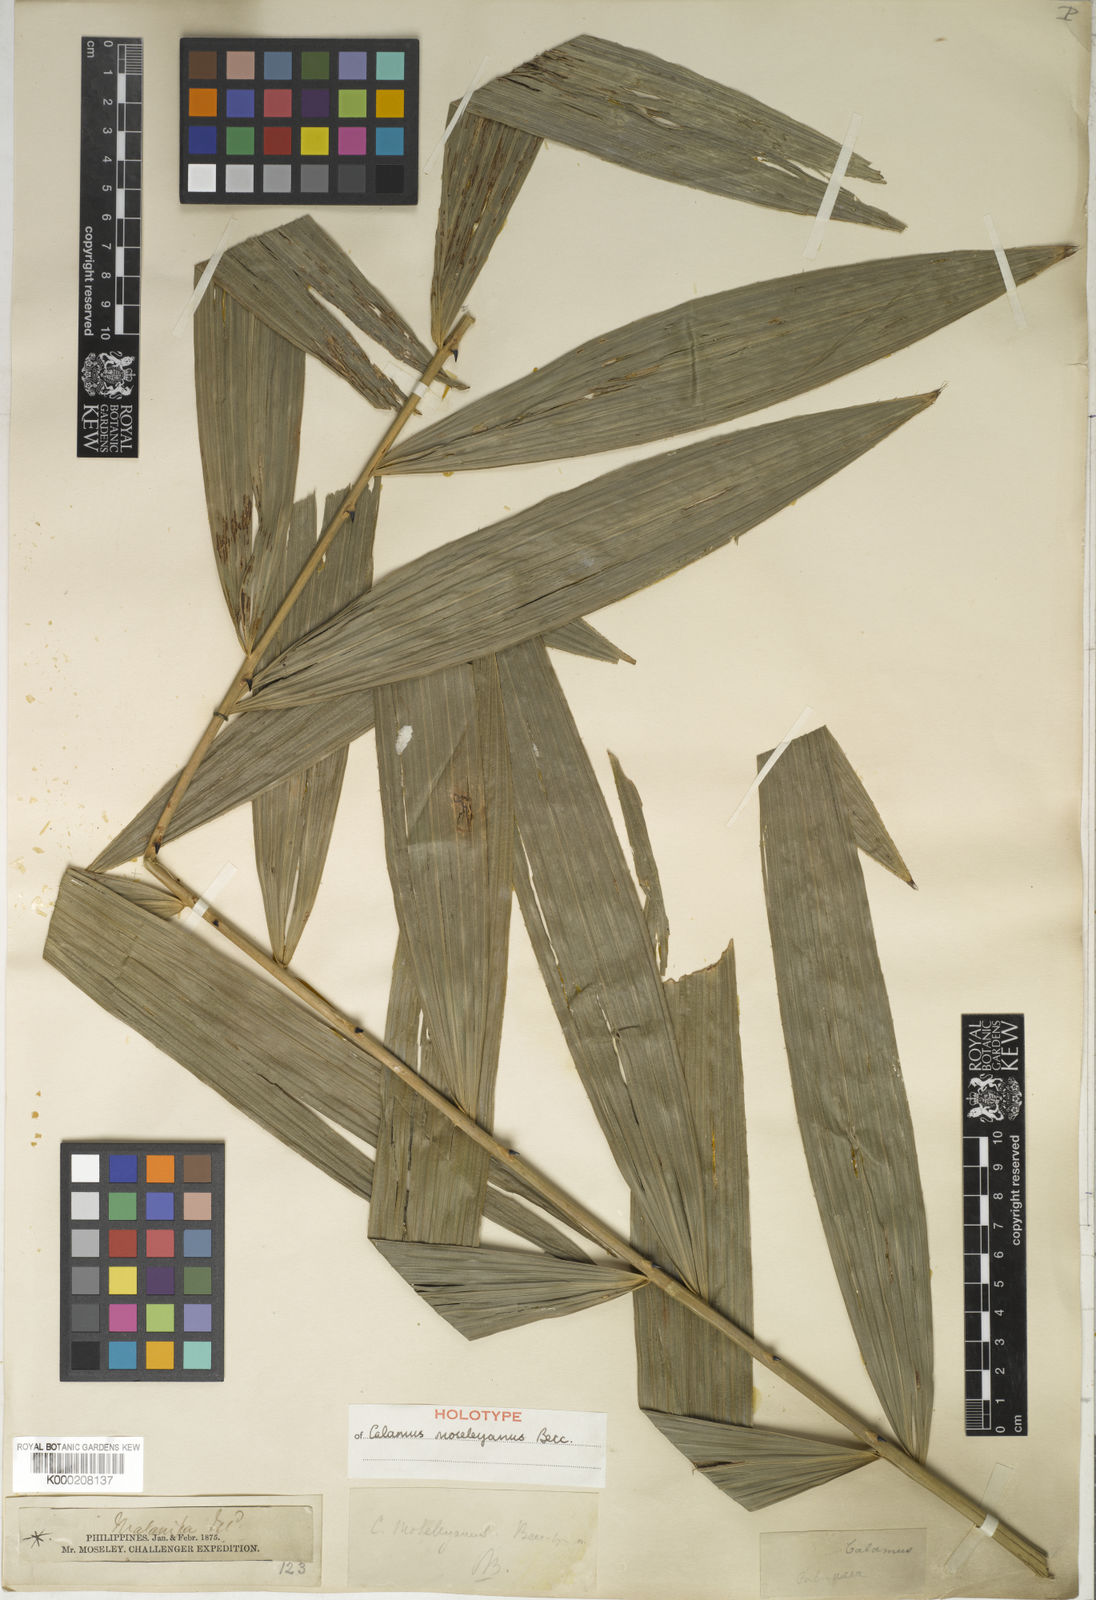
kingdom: Plantae
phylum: Tracheophyta
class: Liliopsida
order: Arecales
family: Arecaceae
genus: Calamus
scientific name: Calamus moseleyanus
